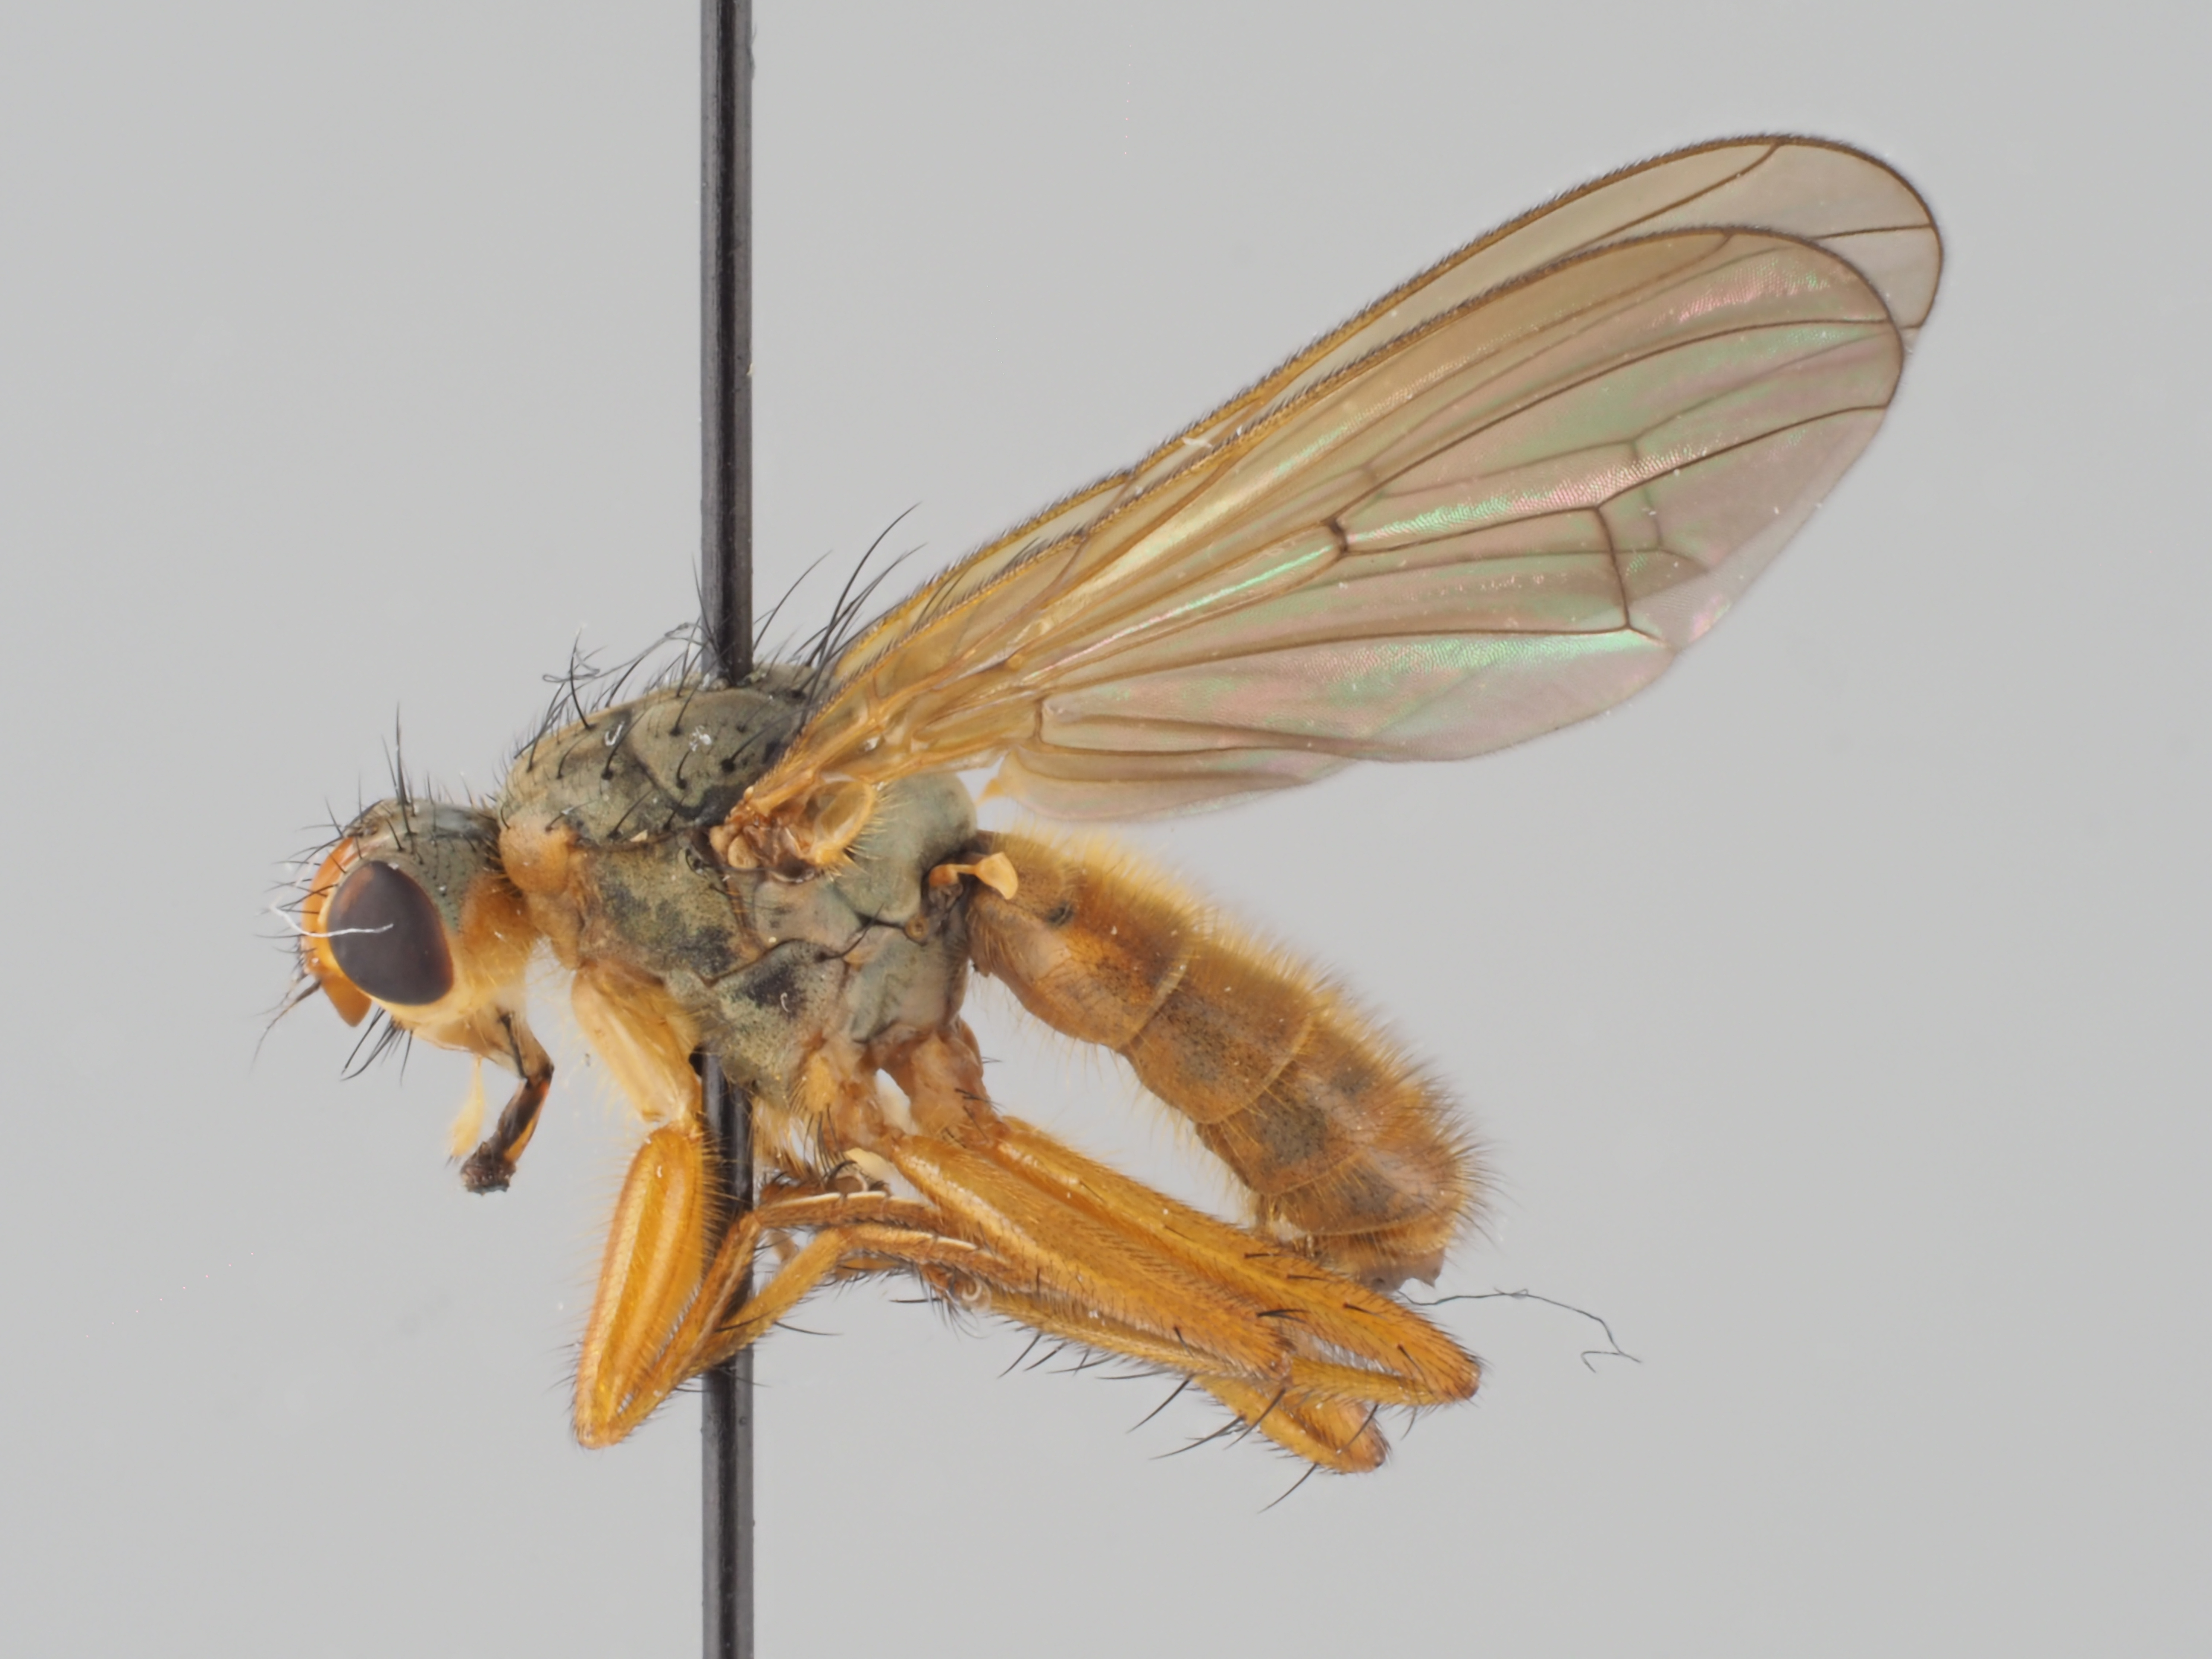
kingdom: Animalia
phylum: Arthropoda
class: Insecta
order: Diptera
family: Scathophagidae
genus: Scathophaga
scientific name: Scathophaga lutaria
